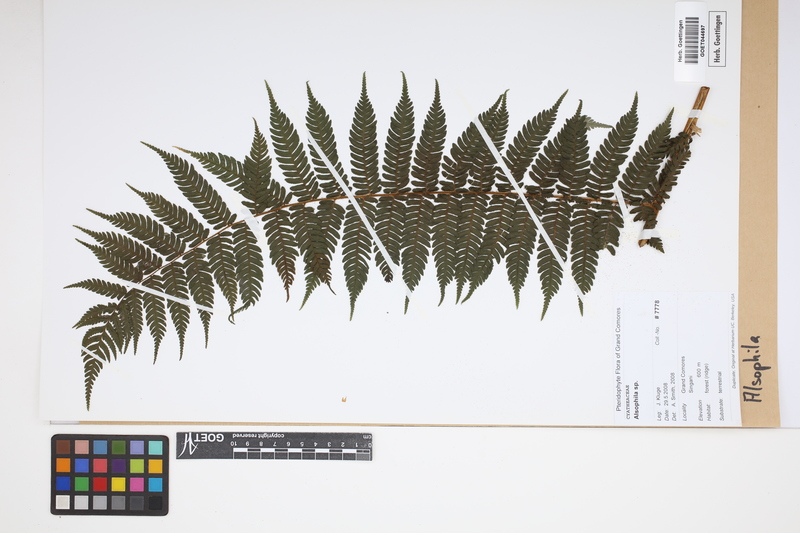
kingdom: Plantae
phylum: Tracheophyta
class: Polypodiopsida
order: Cyatheales
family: Cyatheaceae
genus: Alsophila
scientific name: Alsophila
